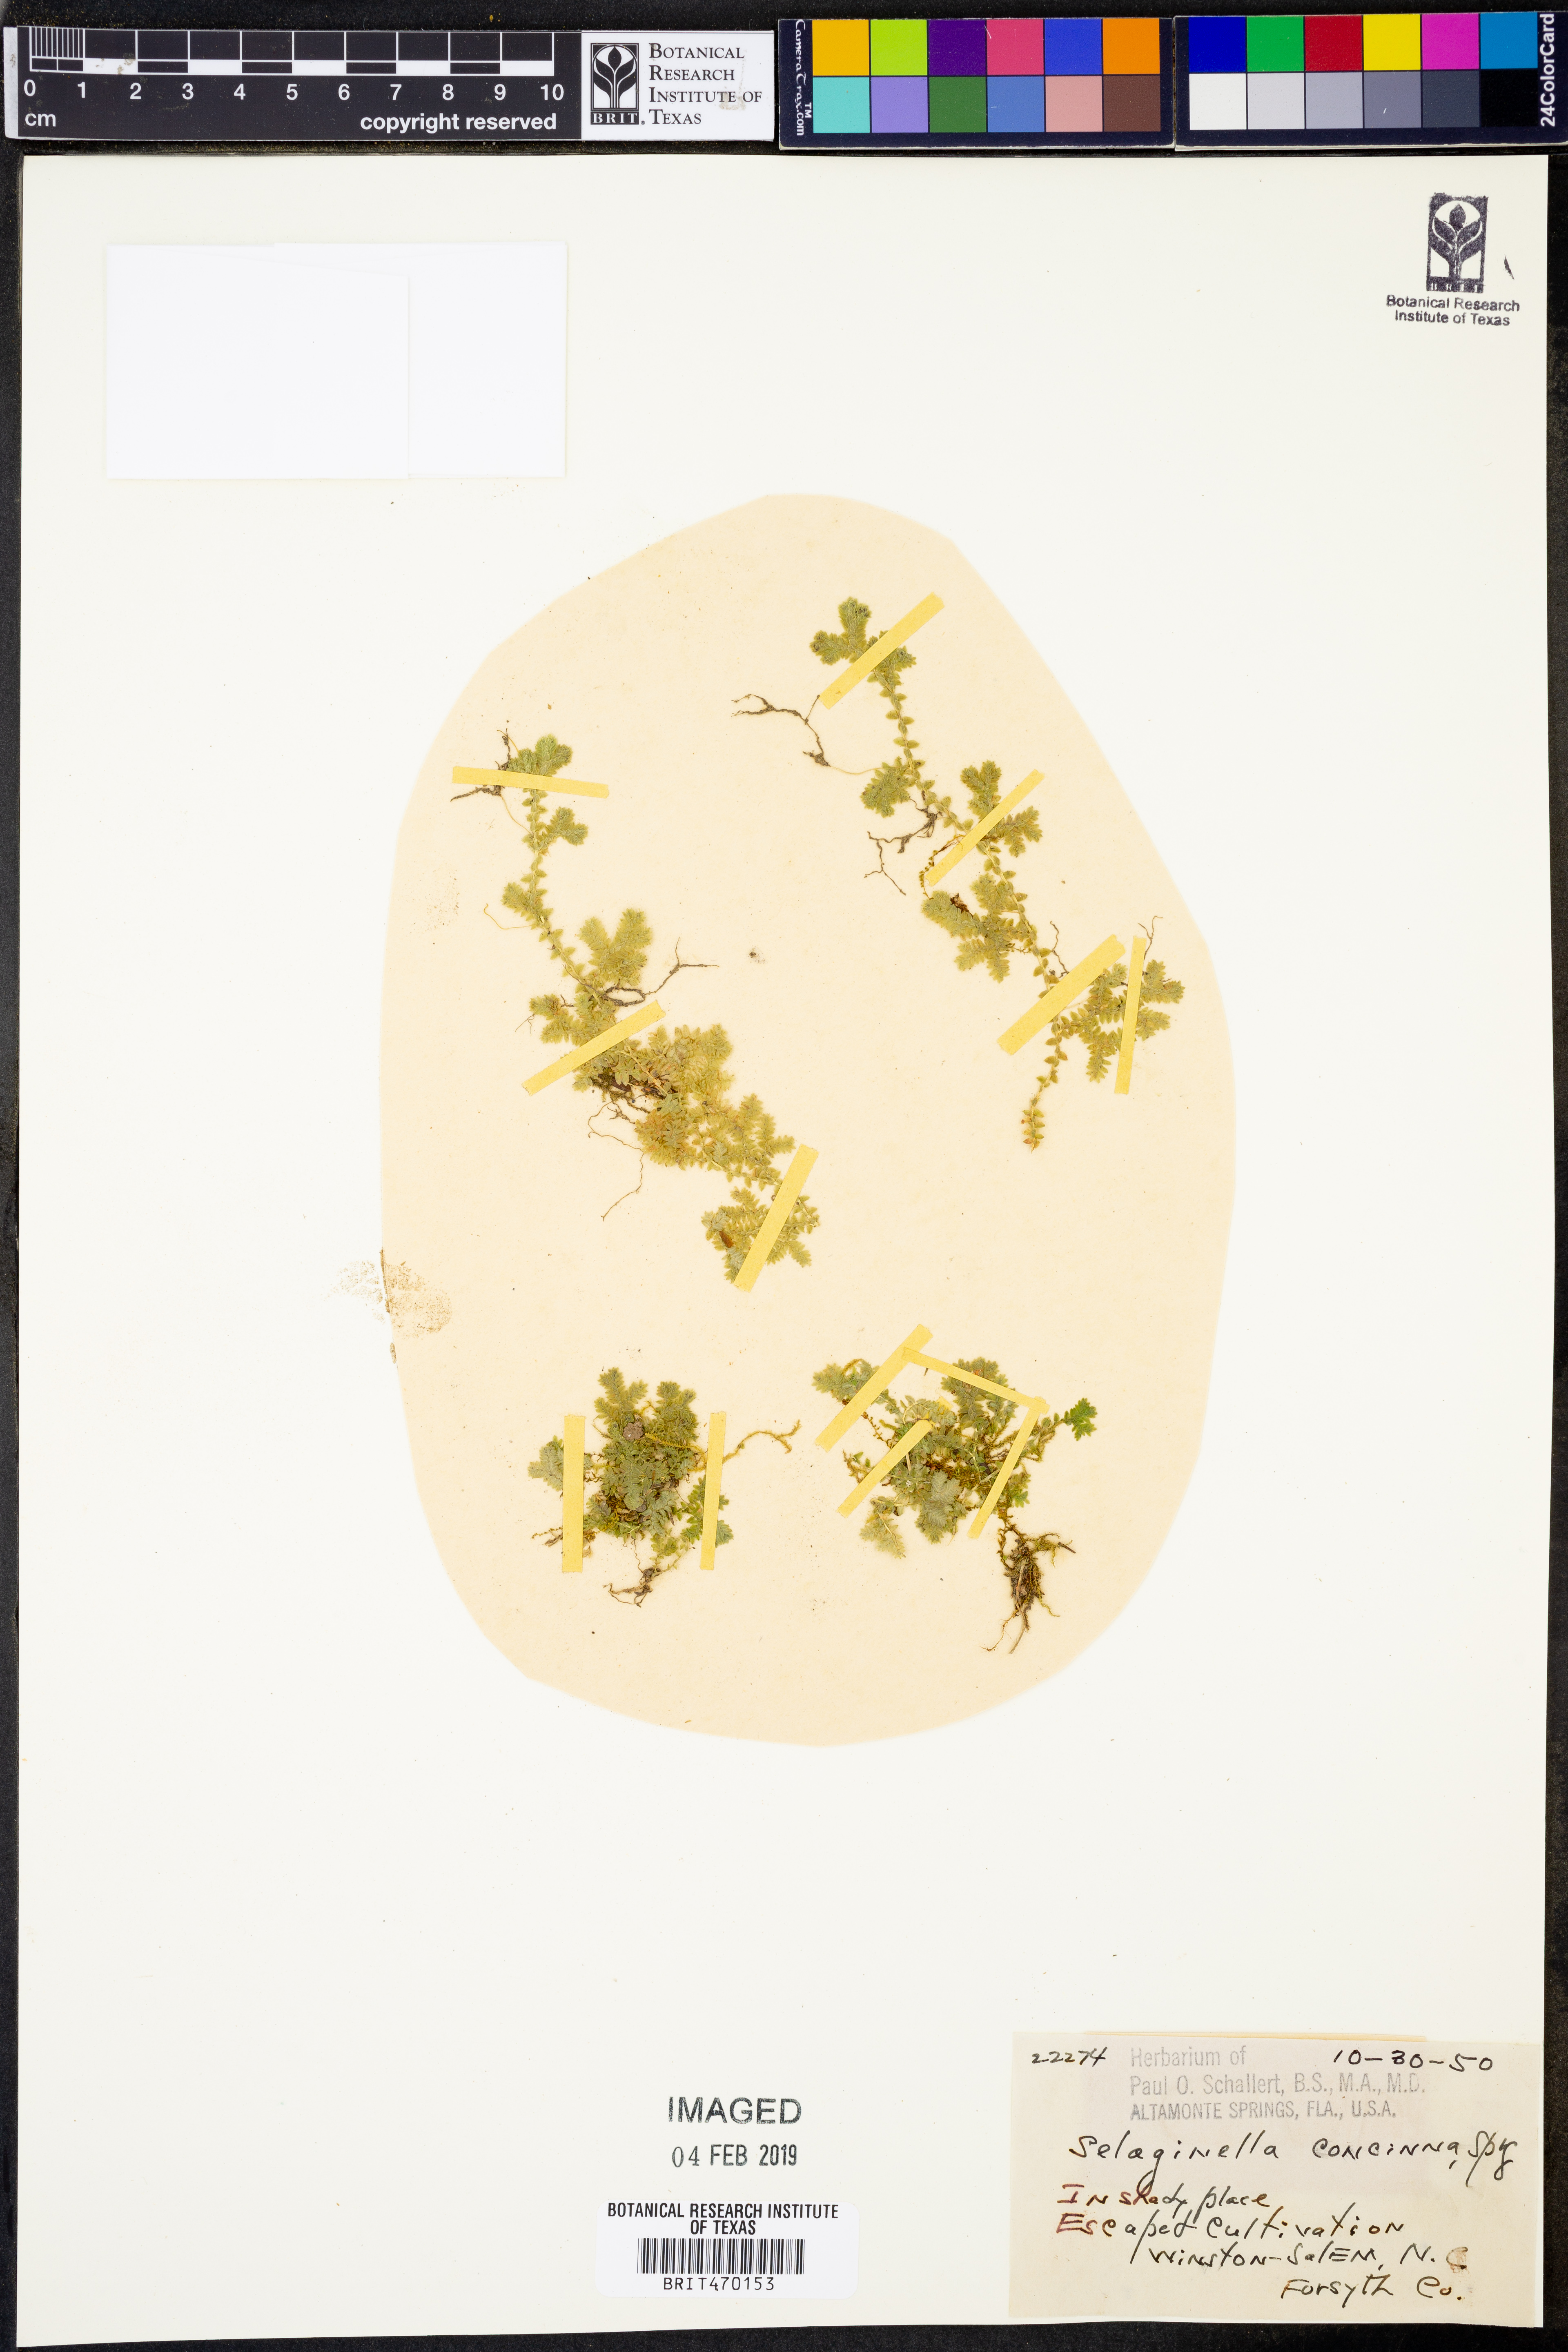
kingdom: Plantae
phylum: Tracheophyta
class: Lycopodiopsida
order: Selaginellales
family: Selaginellaceae
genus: Selaginella
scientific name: Selaginella concinna
